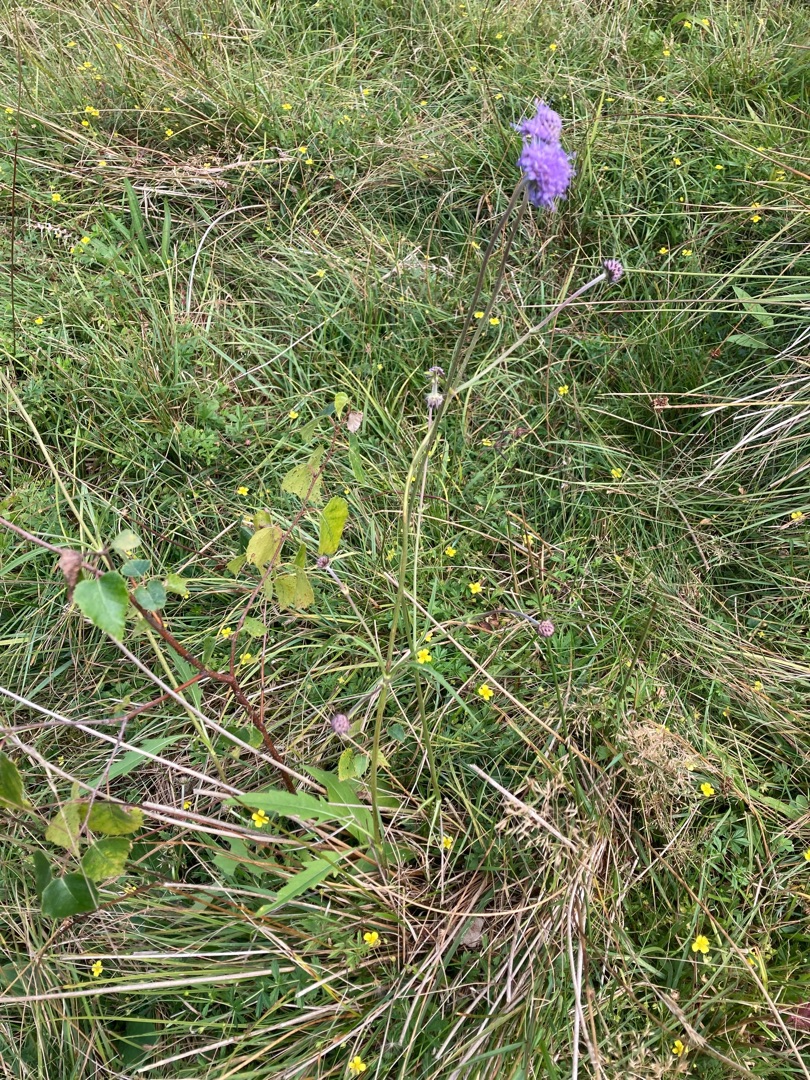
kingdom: Plantae
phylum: Tracheophyta
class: Magnoliopsida
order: Dipsacales
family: Caprifoliaceae
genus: Succisa
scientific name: Succisa pratensis
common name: Djævelsbid
